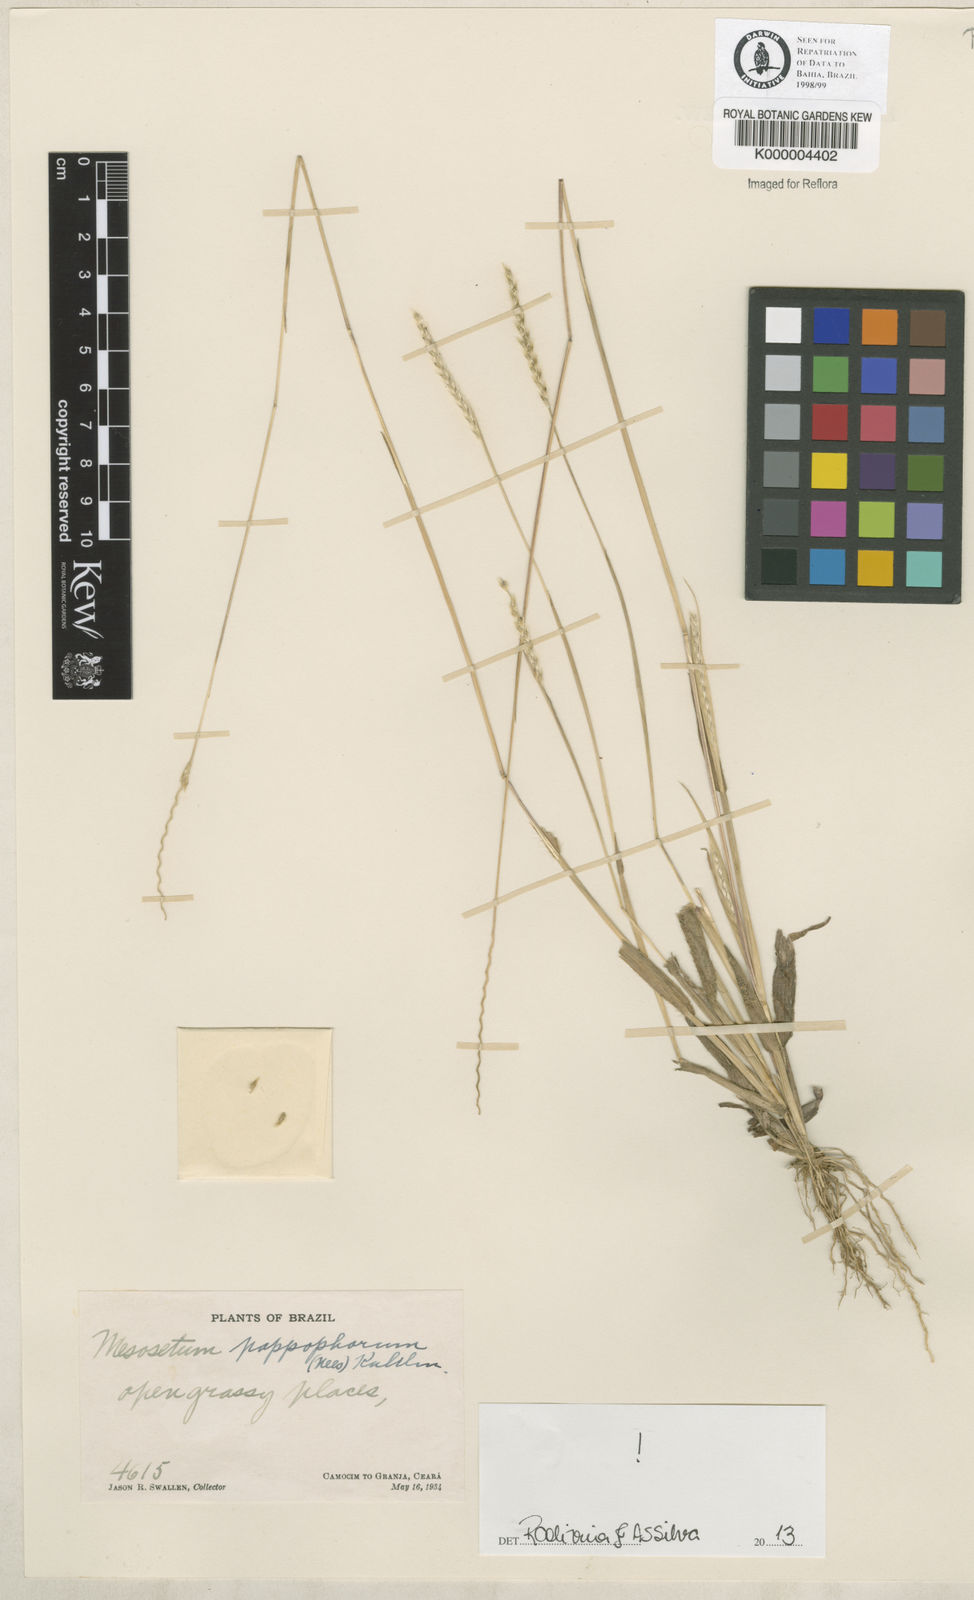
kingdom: Plantae
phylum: Tracheophyta
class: Liliopsida
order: Poales
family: Poaceae
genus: Mesosetum
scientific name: Mesosetum pappophorum
